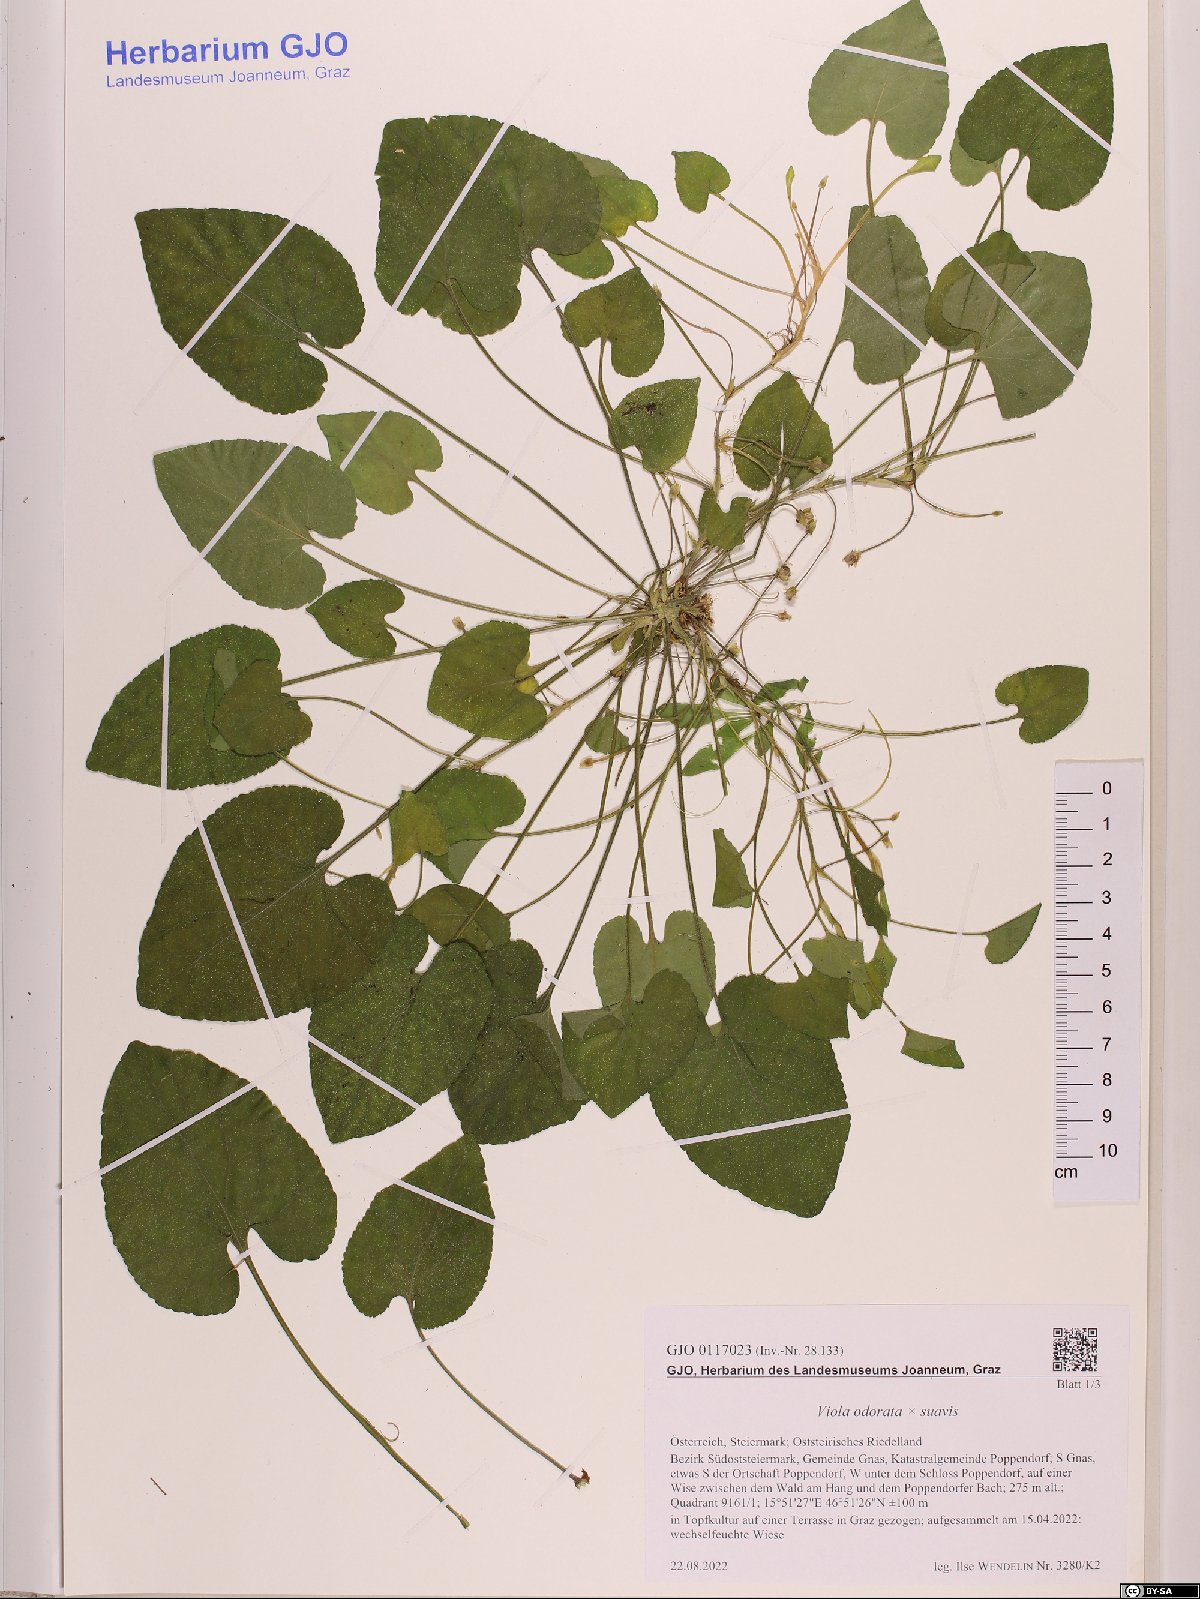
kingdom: Plantae
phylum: Tracheophyta
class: Magnoliopsida
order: Malpighiales
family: Violaceae
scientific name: Violaceae
